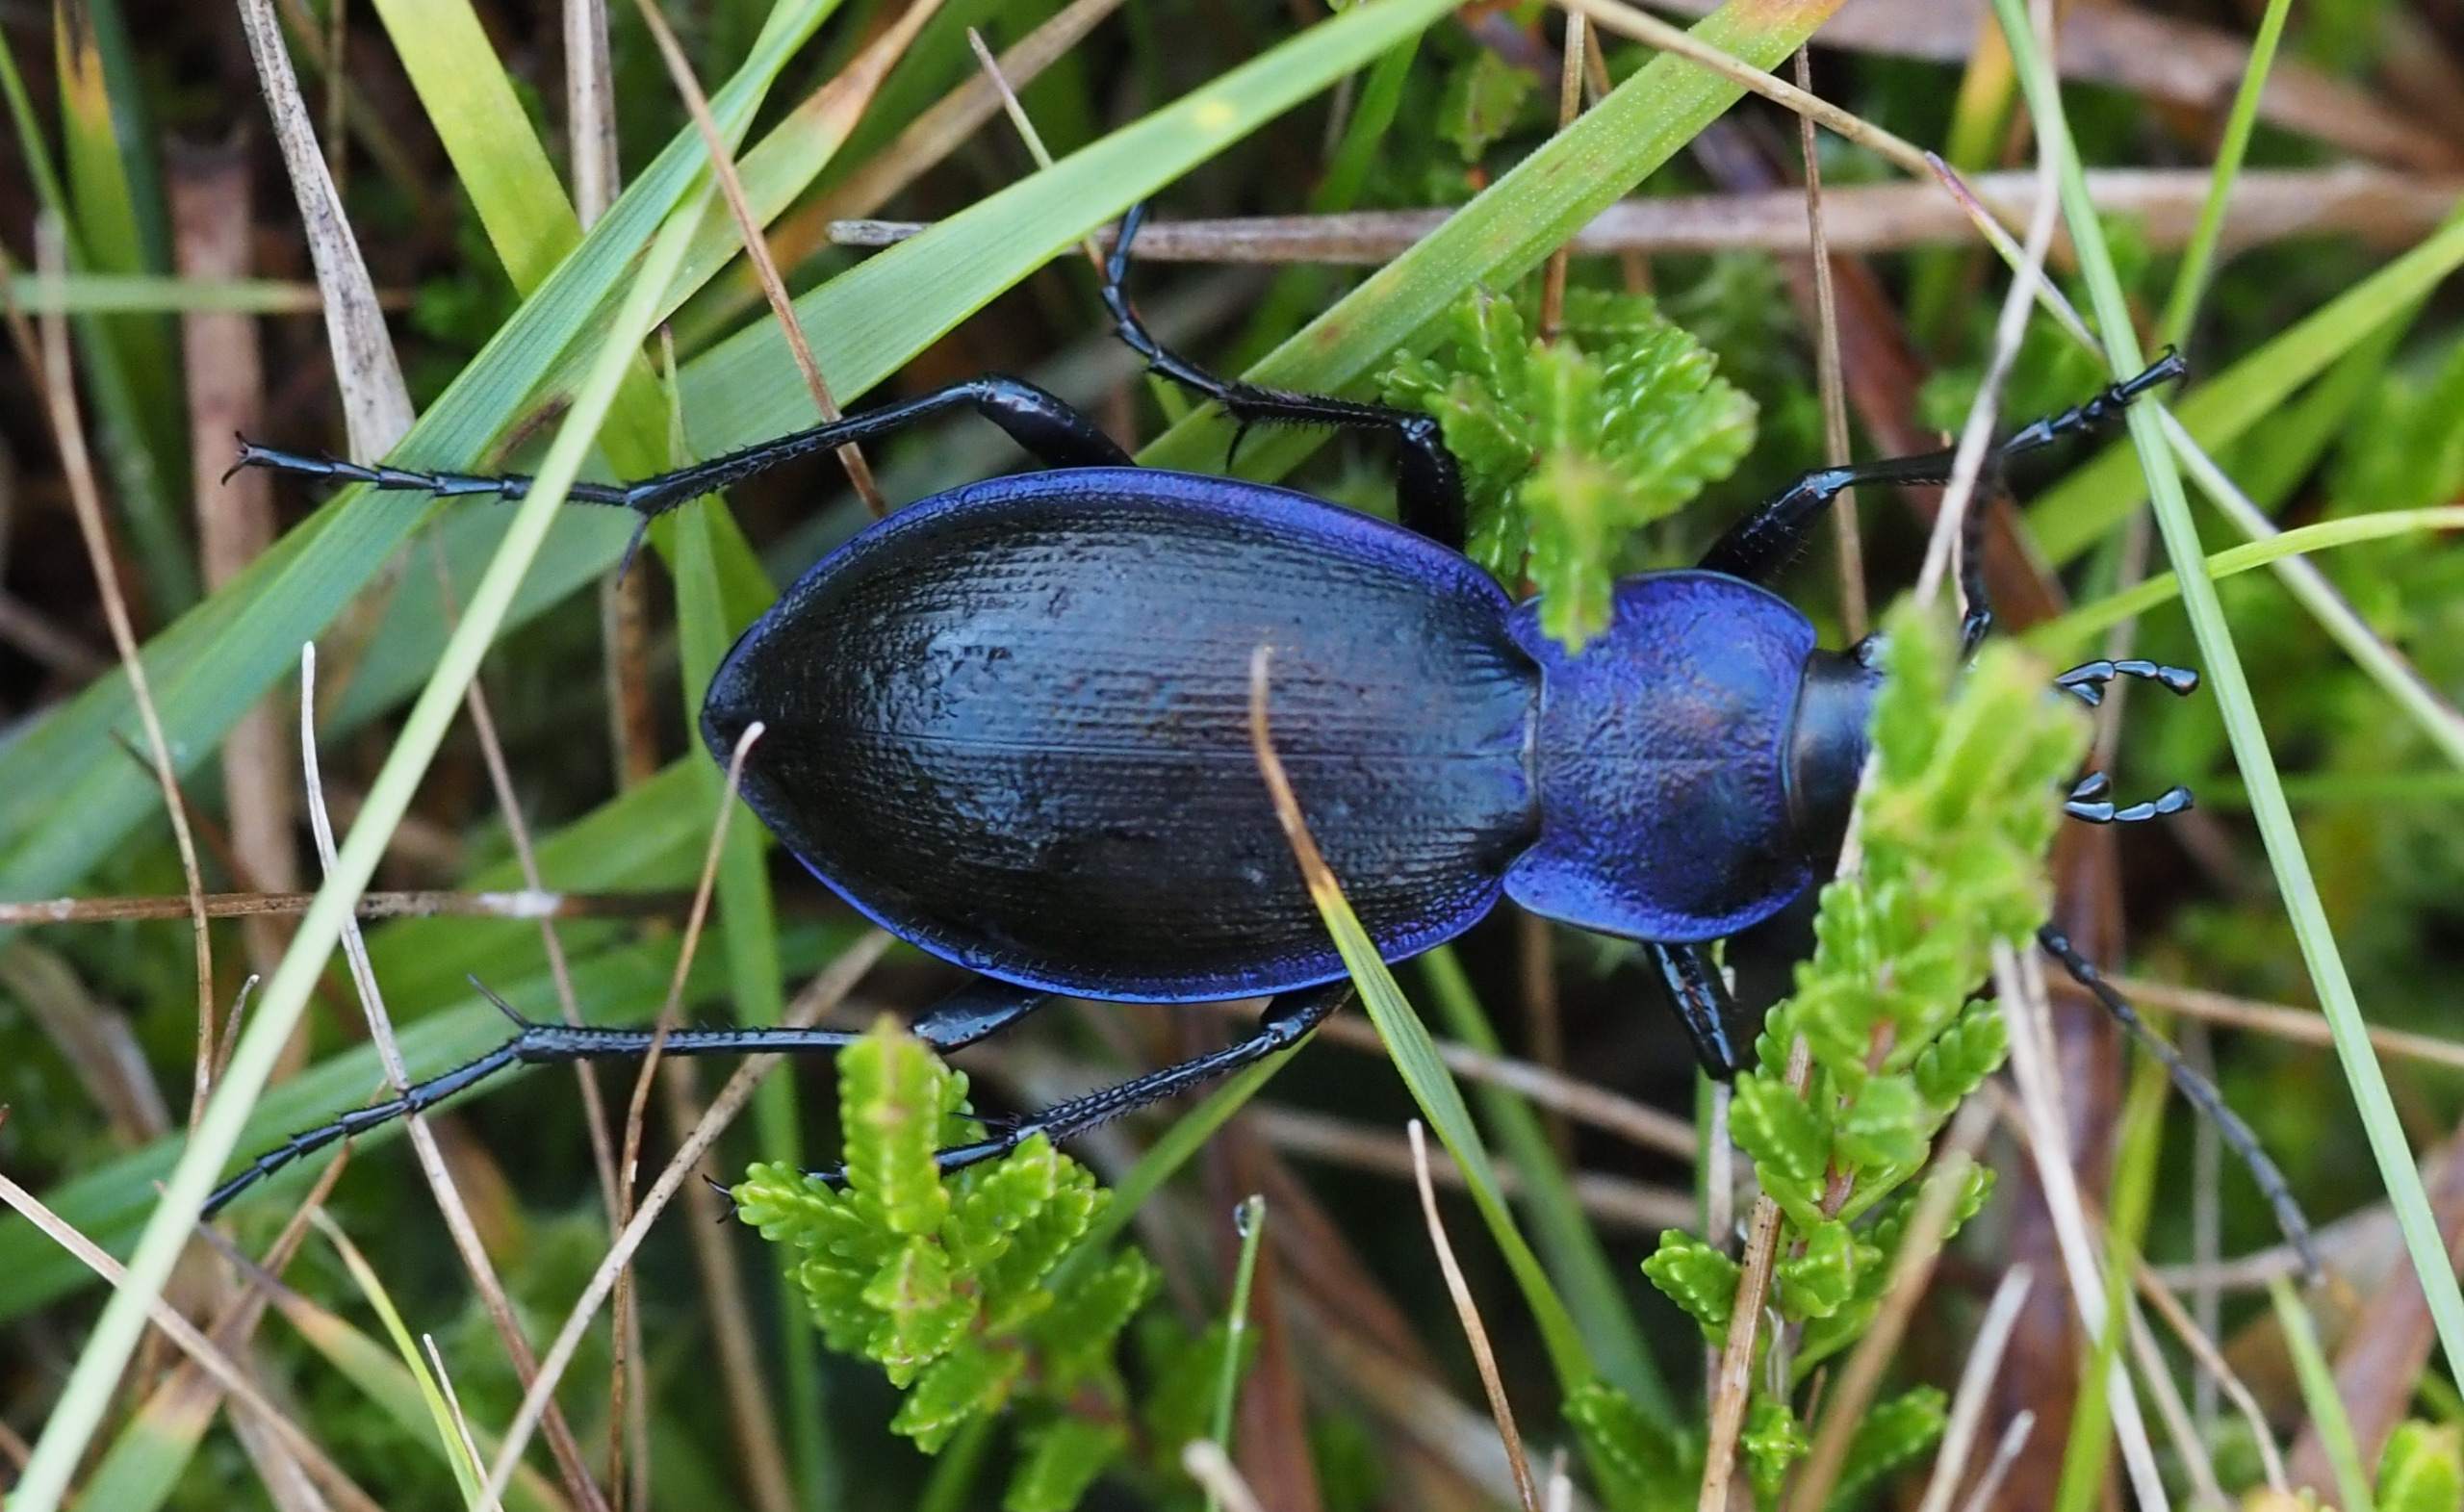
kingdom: Animalia
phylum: Arthropoda
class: Insecta
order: Coleoptera
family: Carabidae
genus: Carabus
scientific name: Carabus problematicus
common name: Jysk løber
